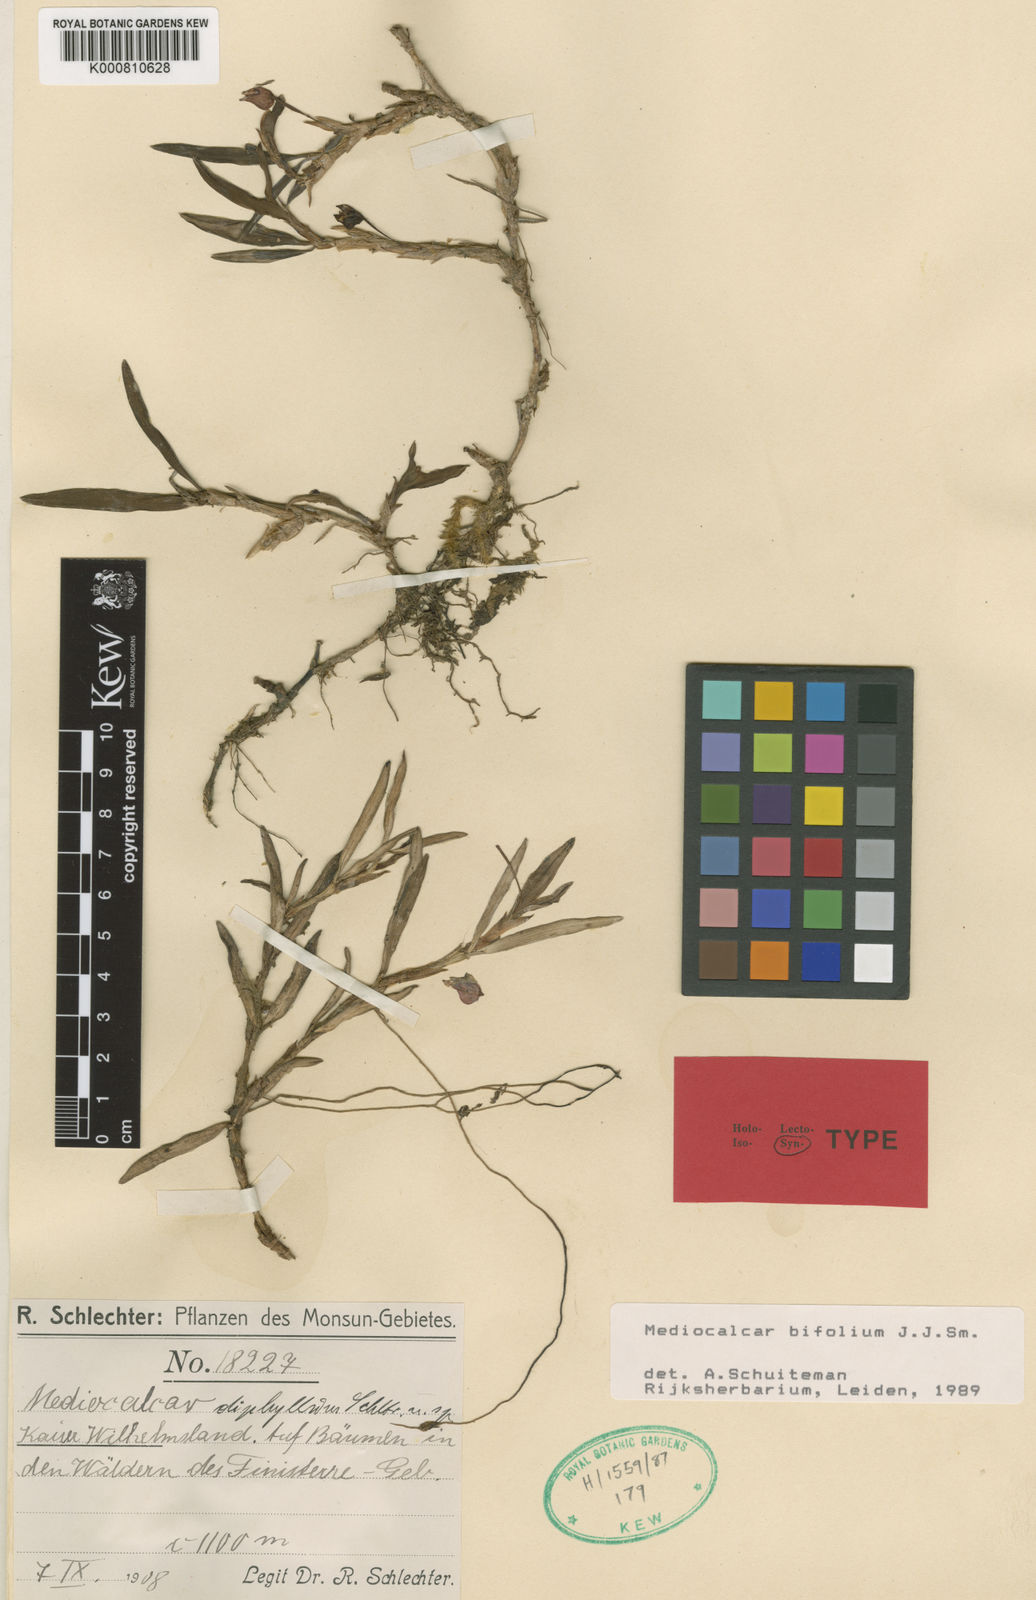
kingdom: Plantae
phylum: Tracheophyta
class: Liliopsida
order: Asparagales
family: Orchidaceae
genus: Mediocalcar
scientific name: Mediocalcar bifolium
